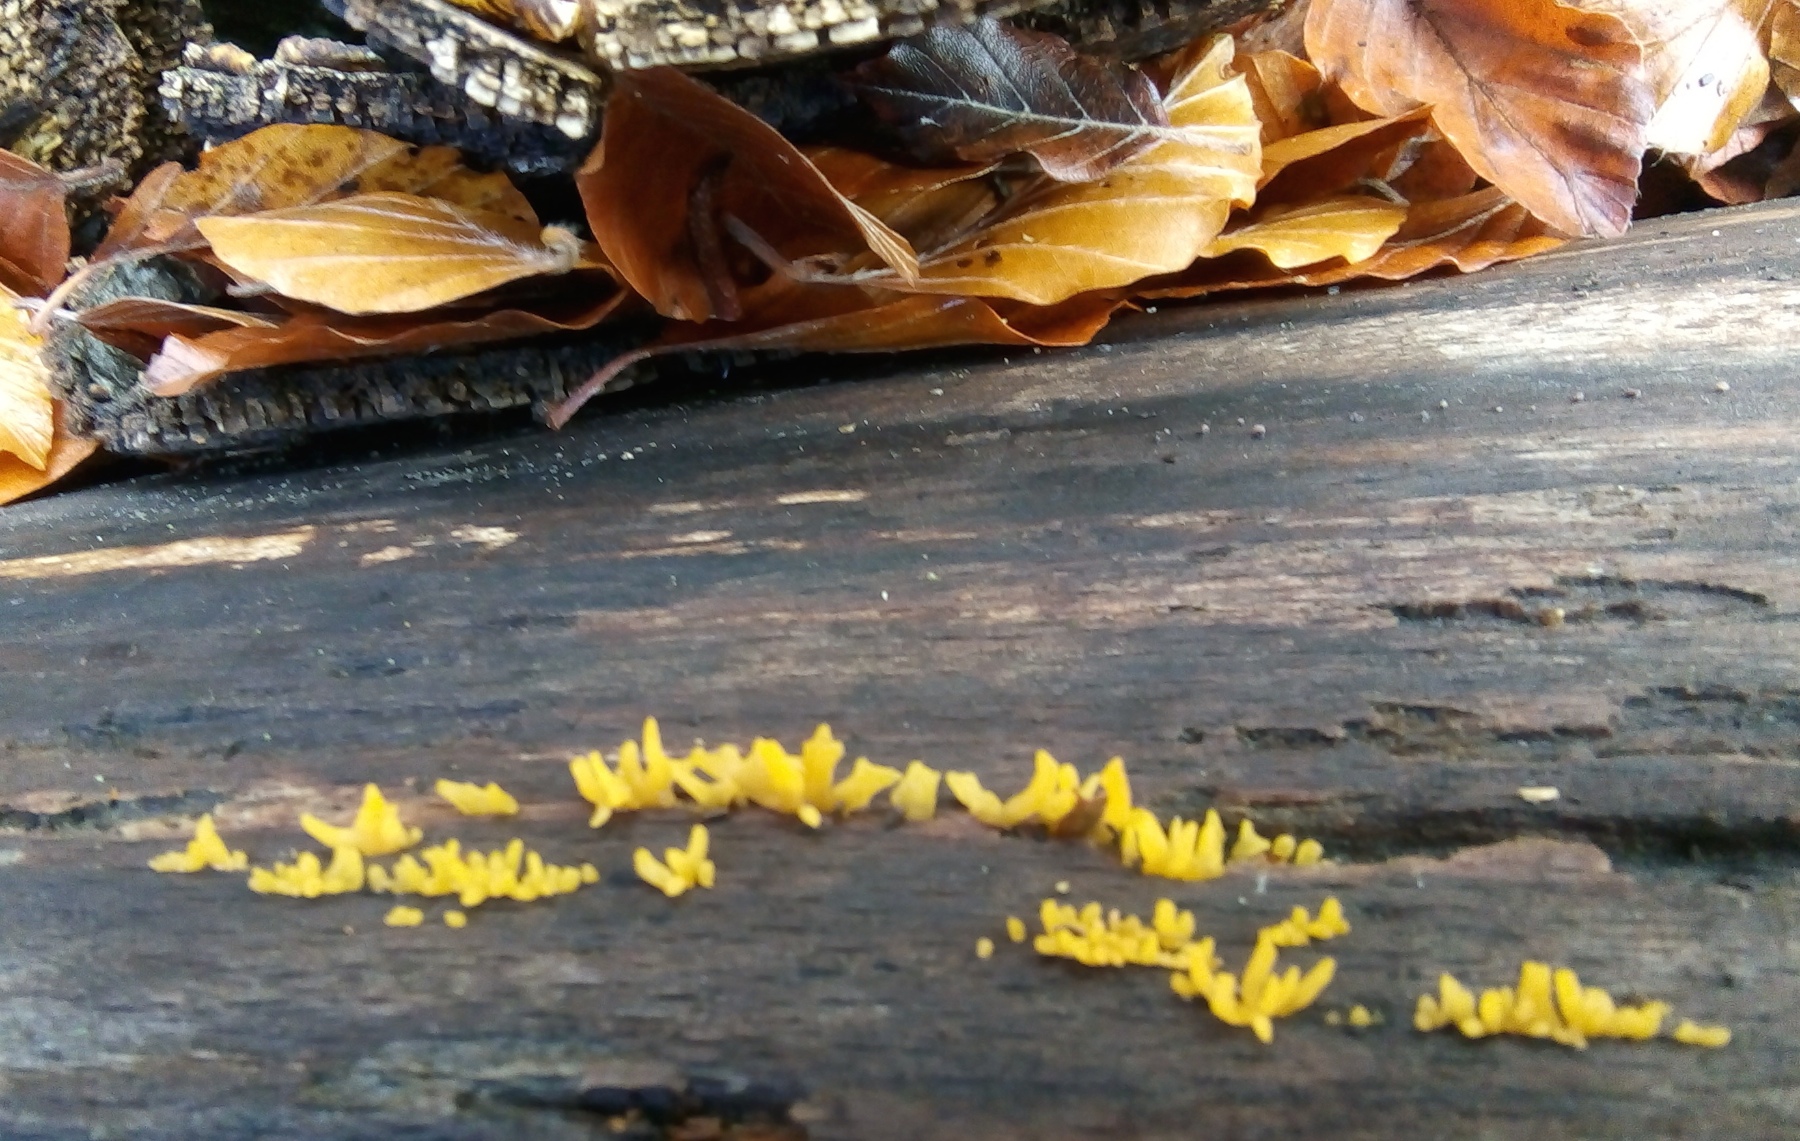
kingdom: Fungi
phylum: Basidiomycota
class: Dacrymycetes
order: Dacrymycetales
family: Dacrymycetaceae
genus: Calocera
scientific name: Calocera cornea
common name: liden guldgaffel
